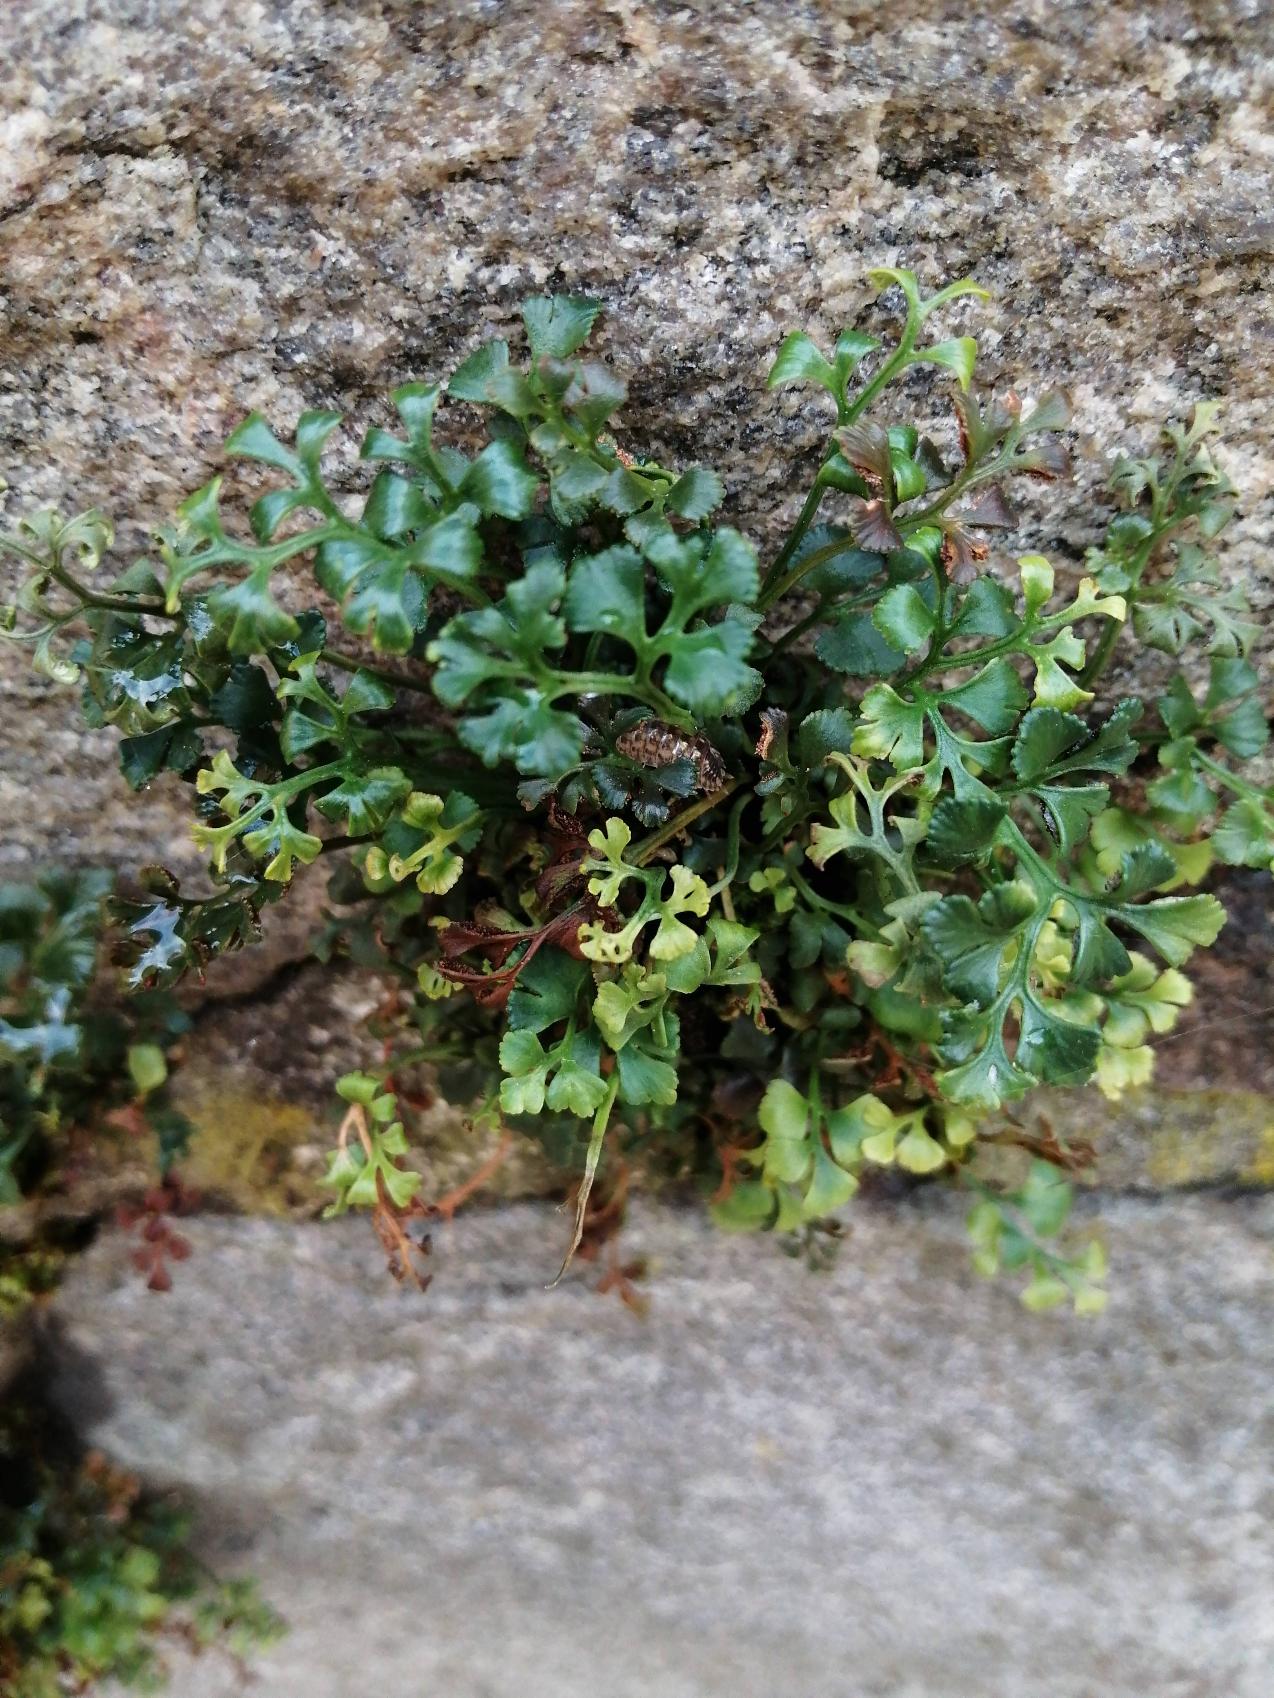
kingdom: Plantae
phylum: Tracheophyta
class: Polypodiopsida
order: Polypodiales
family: Aspleniaceae
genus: Asplenium
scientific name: Asplenium ruta-muraria
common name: Murrude
